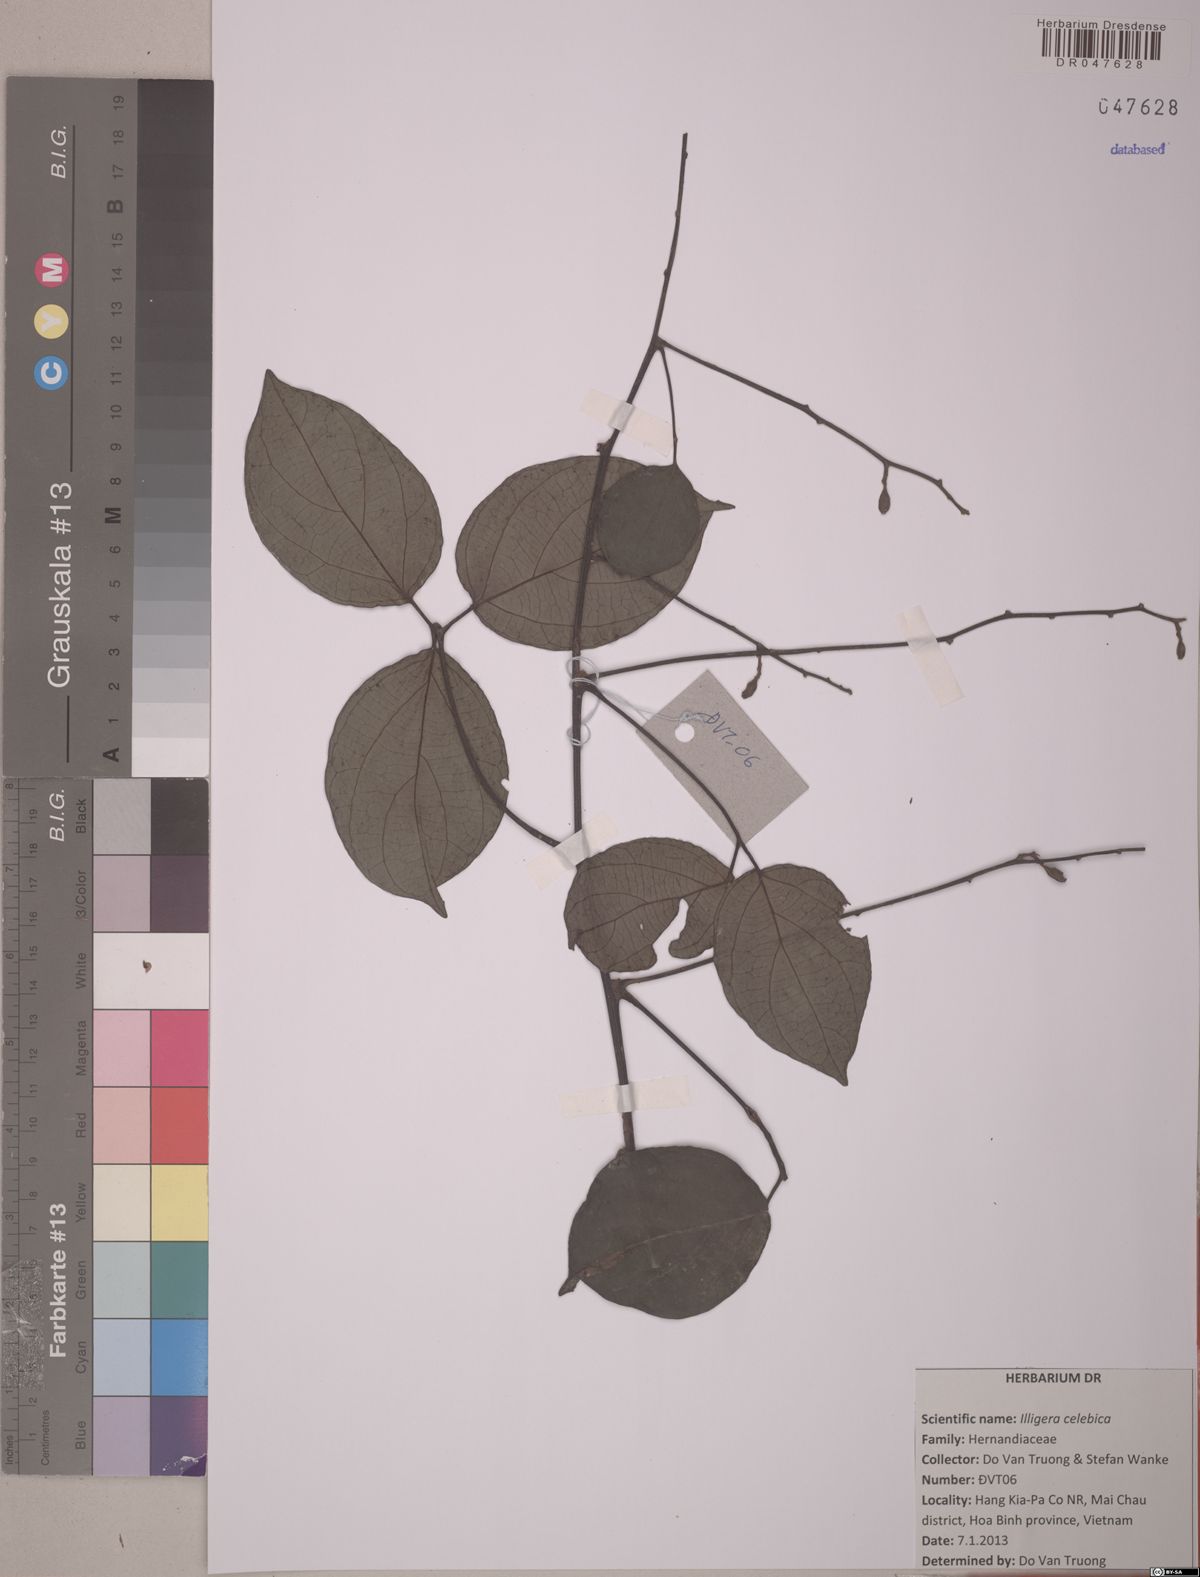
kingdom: Plantae
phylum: Tracheophyta
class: Magnoliopsida
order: Laurales
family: Hernandiaceae
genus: Illigera
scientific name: Illigera celebica
